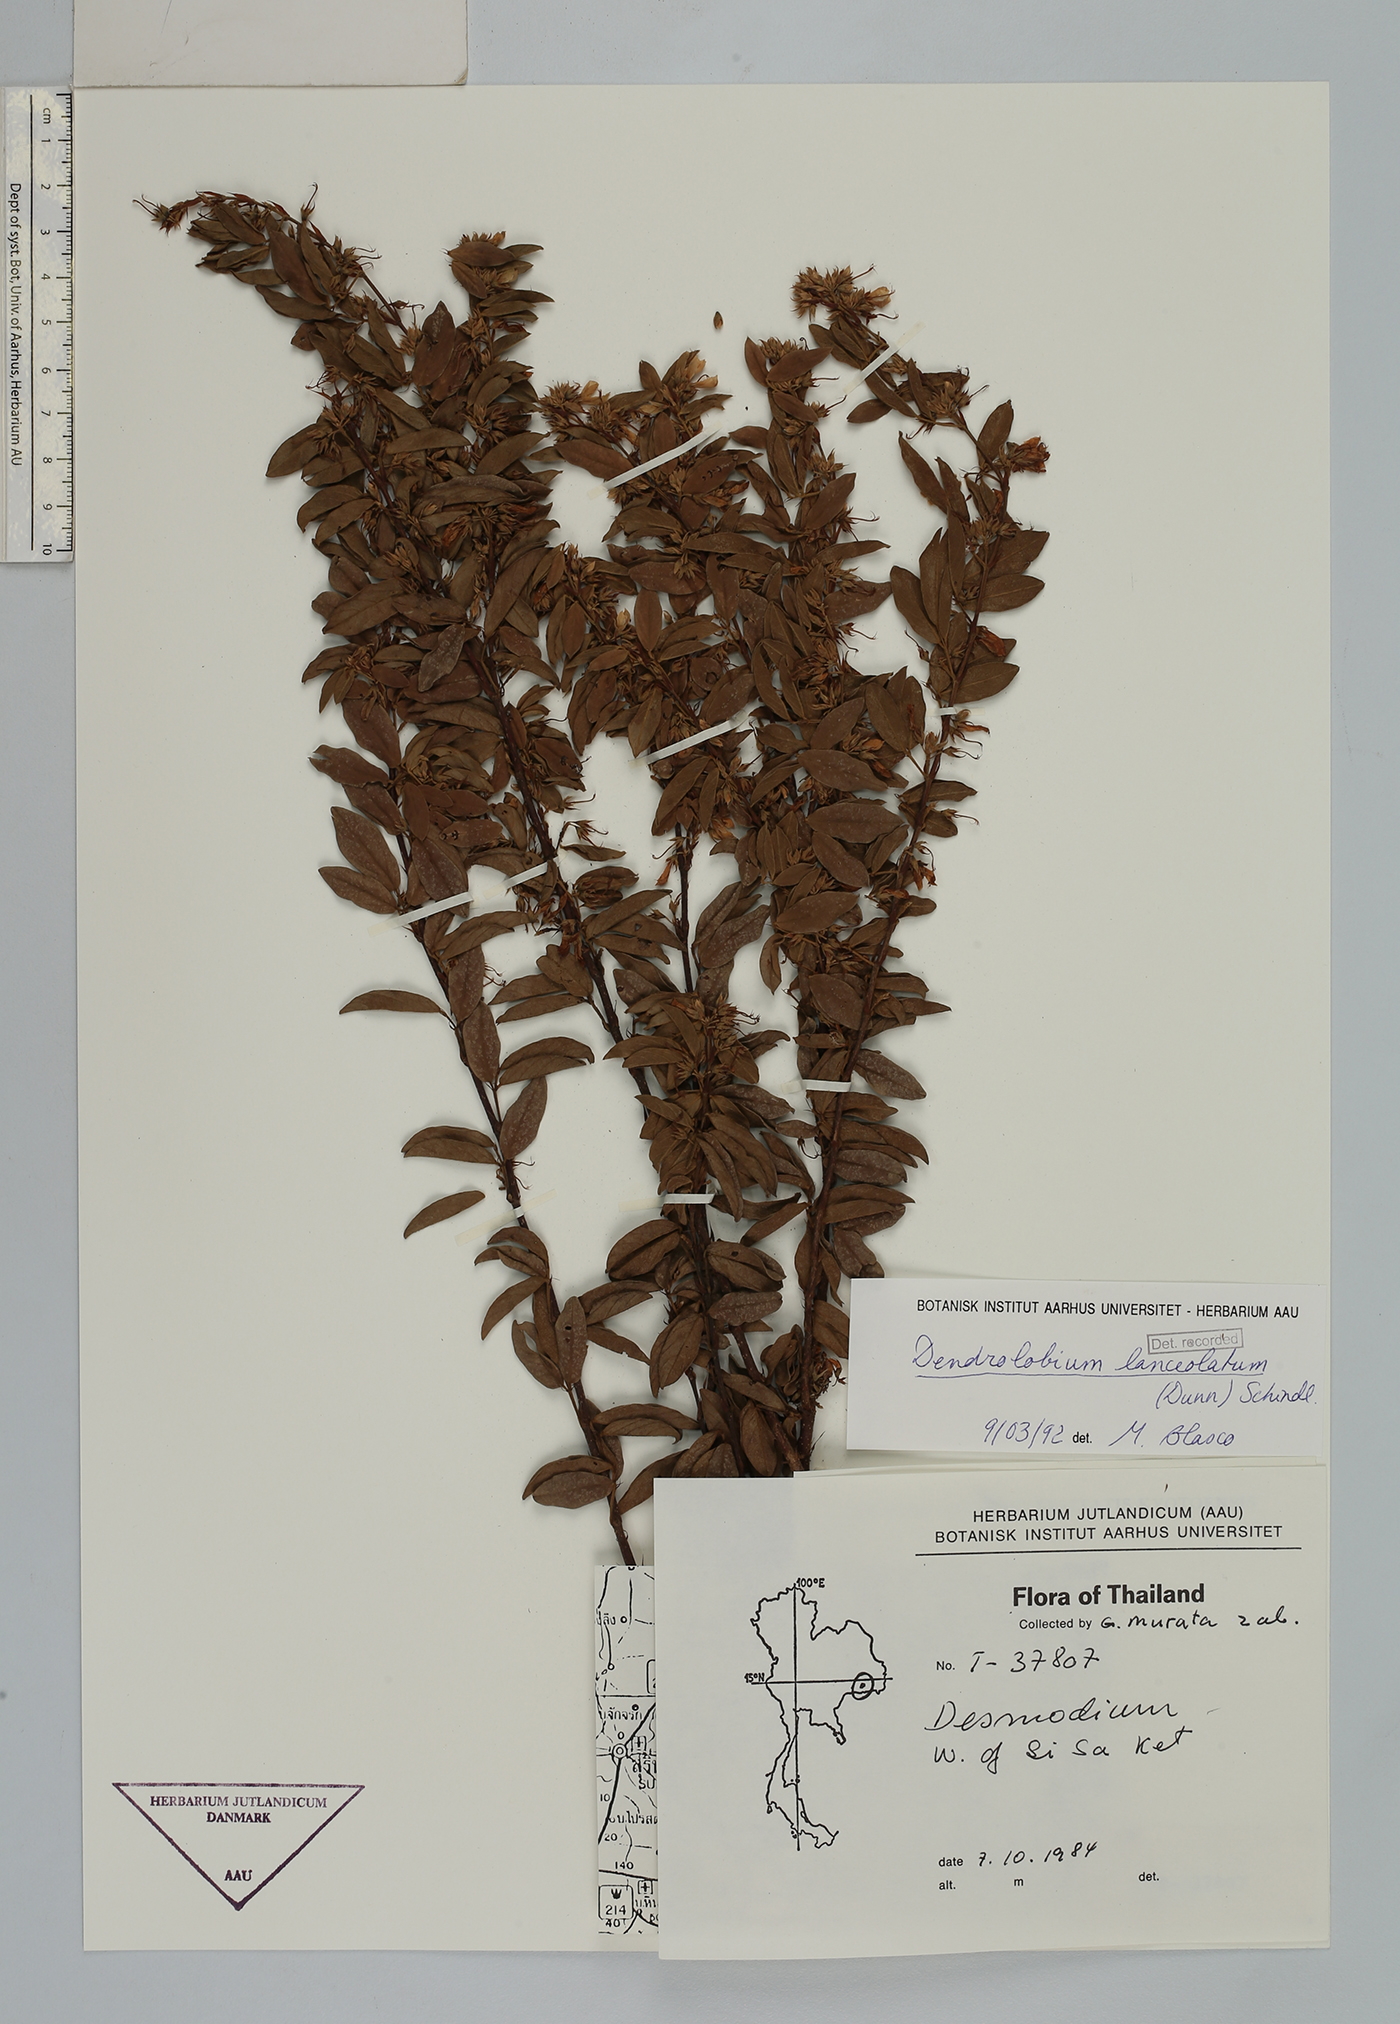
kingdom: Plantae
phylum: Tracheophyta
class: Magnoliopsida
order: Fabales
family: Fabaceae
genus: Dendrolobium
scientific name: Dendrolobium lanceolatum
